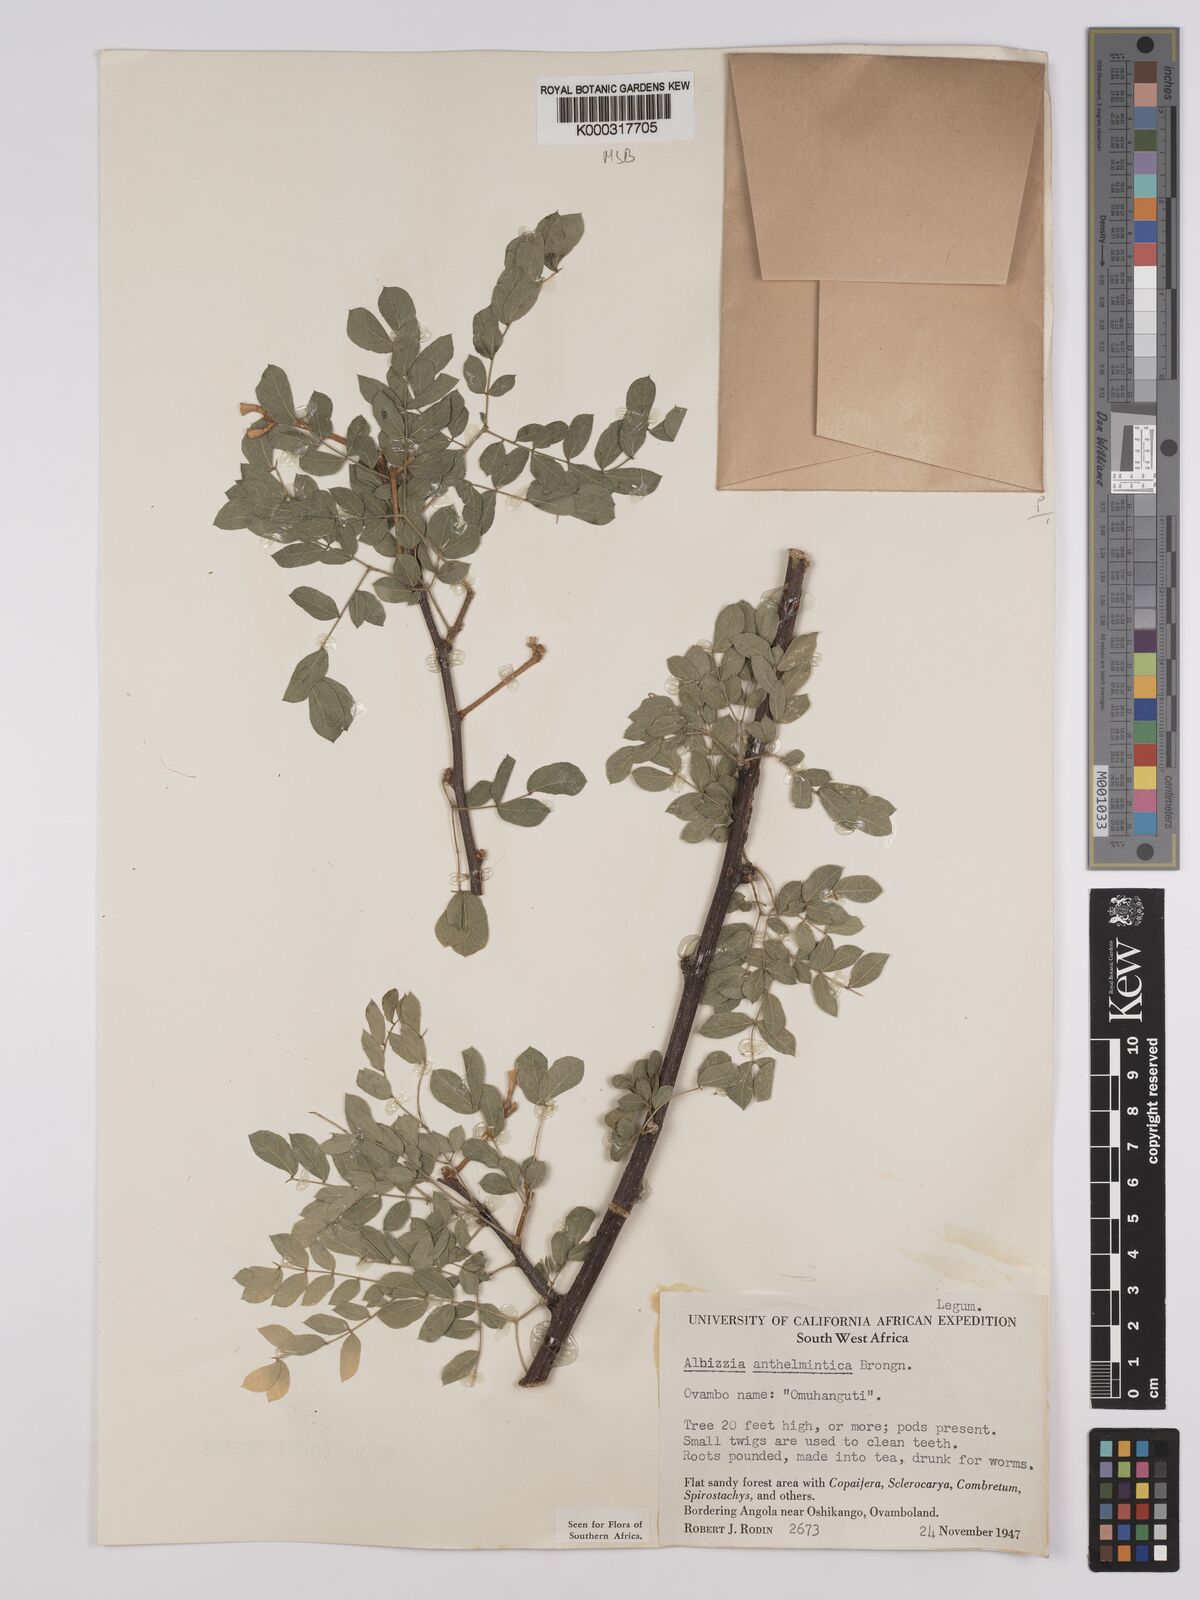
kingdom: Plantae
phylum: Tracheophyta
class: Magnoliopsida
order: Fabales
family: Fabaceae
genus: Albizia
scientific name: Albizia anthelmintica
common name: Worm-bark false-thorn
